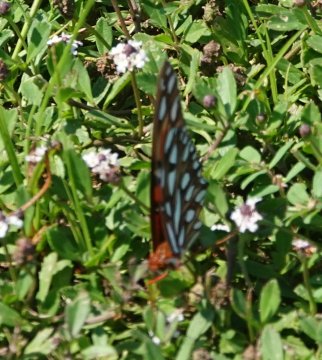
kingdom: Animalia
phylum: Arthropoda
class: Insecta
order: Lepidoptera
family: Nymphalidae
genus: Dione
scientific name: Dione vanillae
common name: Gulf Fritillary
